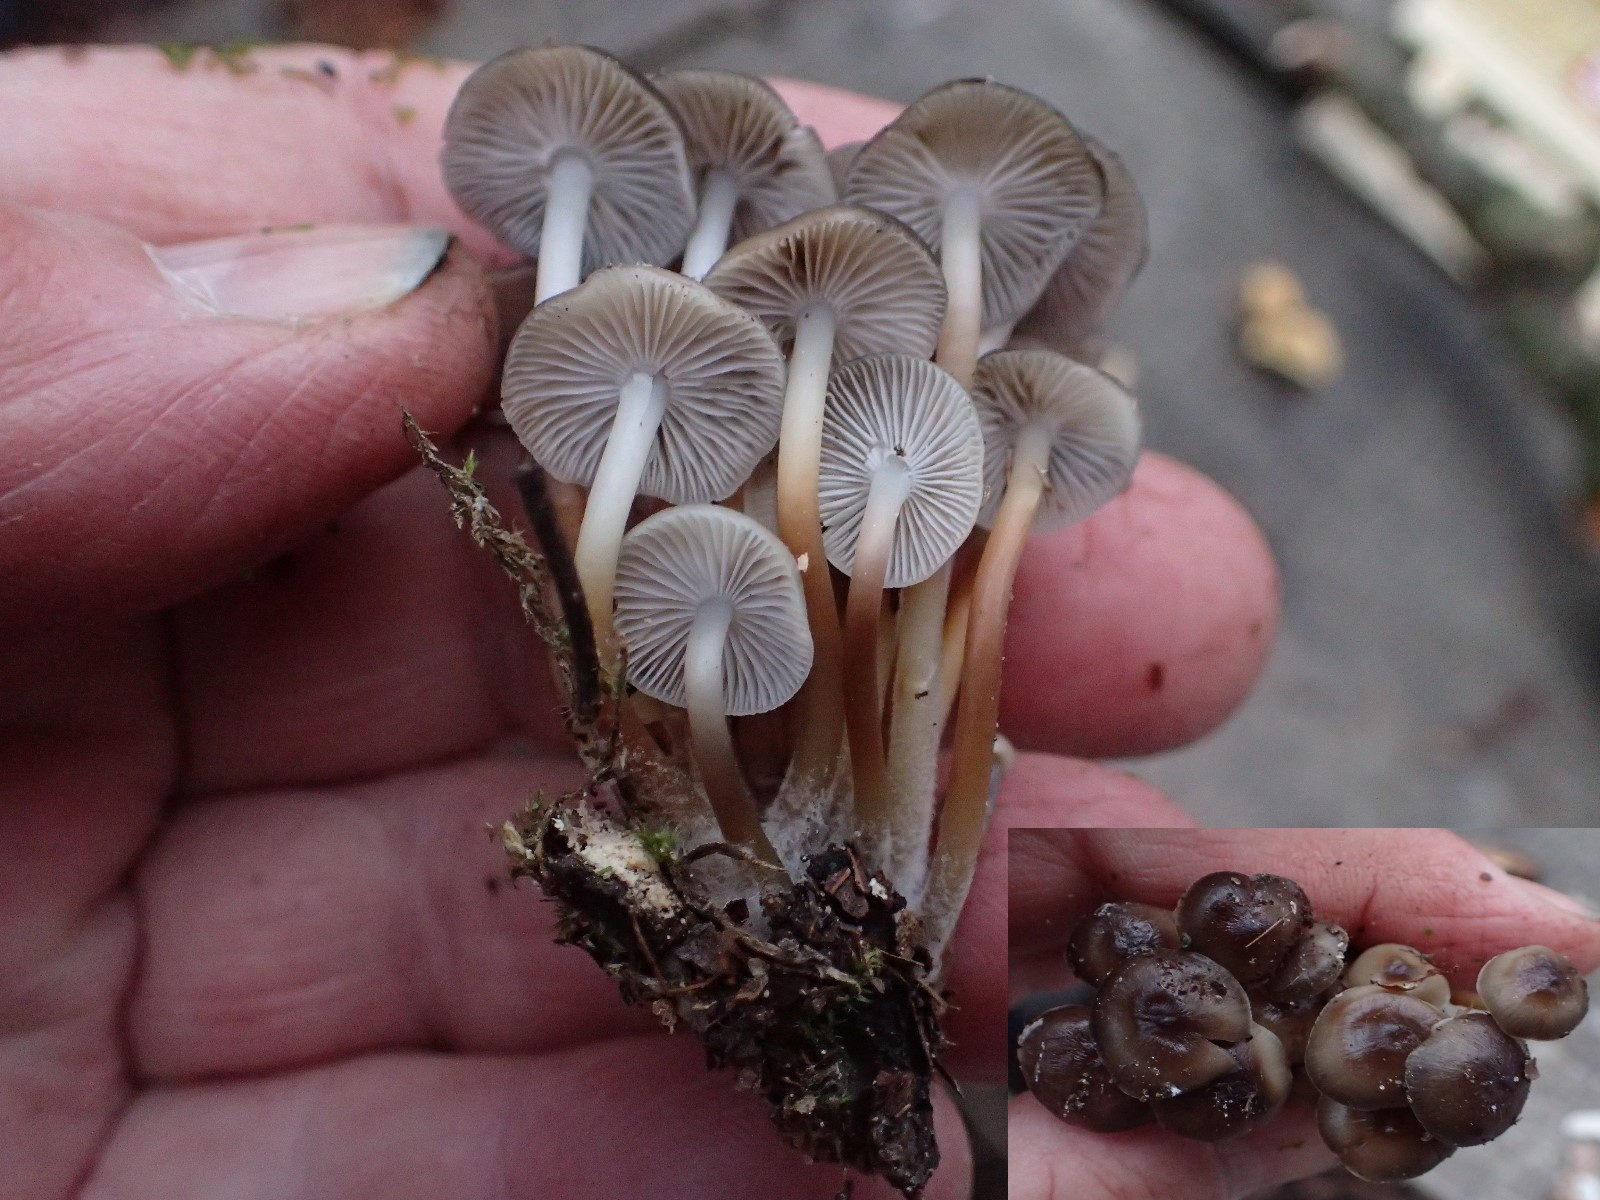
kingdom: Fungi
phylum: Basidiomycota
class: Agaricomycetes
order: Agaricales
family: Mycenaceae
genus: Mycena
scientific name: Mycena tintinnabulum
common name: vinter-huesvamp
